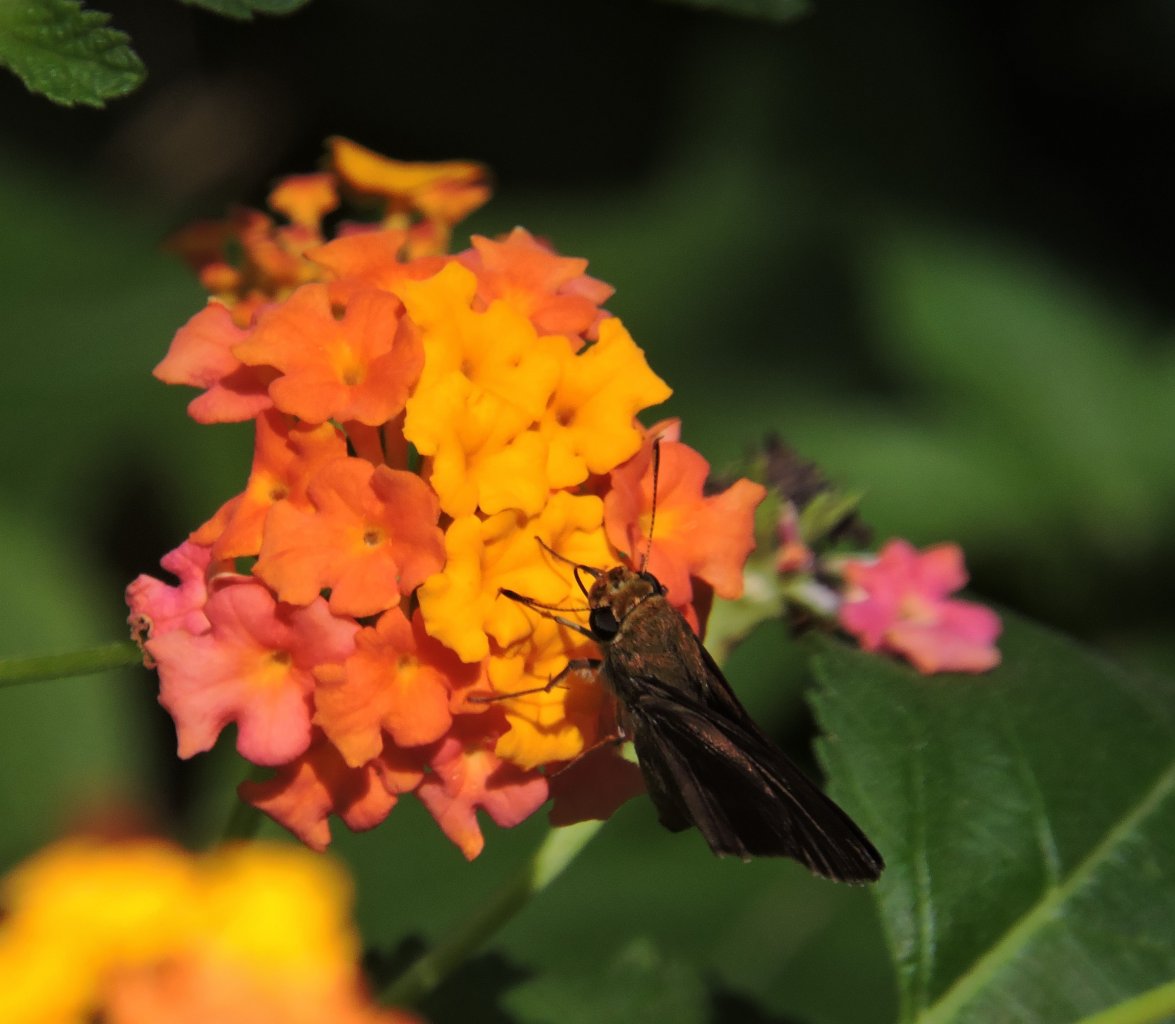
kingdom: Animalia
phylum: Arthropoda
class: Insecta
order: Lepidoptera
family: Hesperiidae
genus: Lerema
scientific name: Lerema accius
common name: Clouded Skipper
